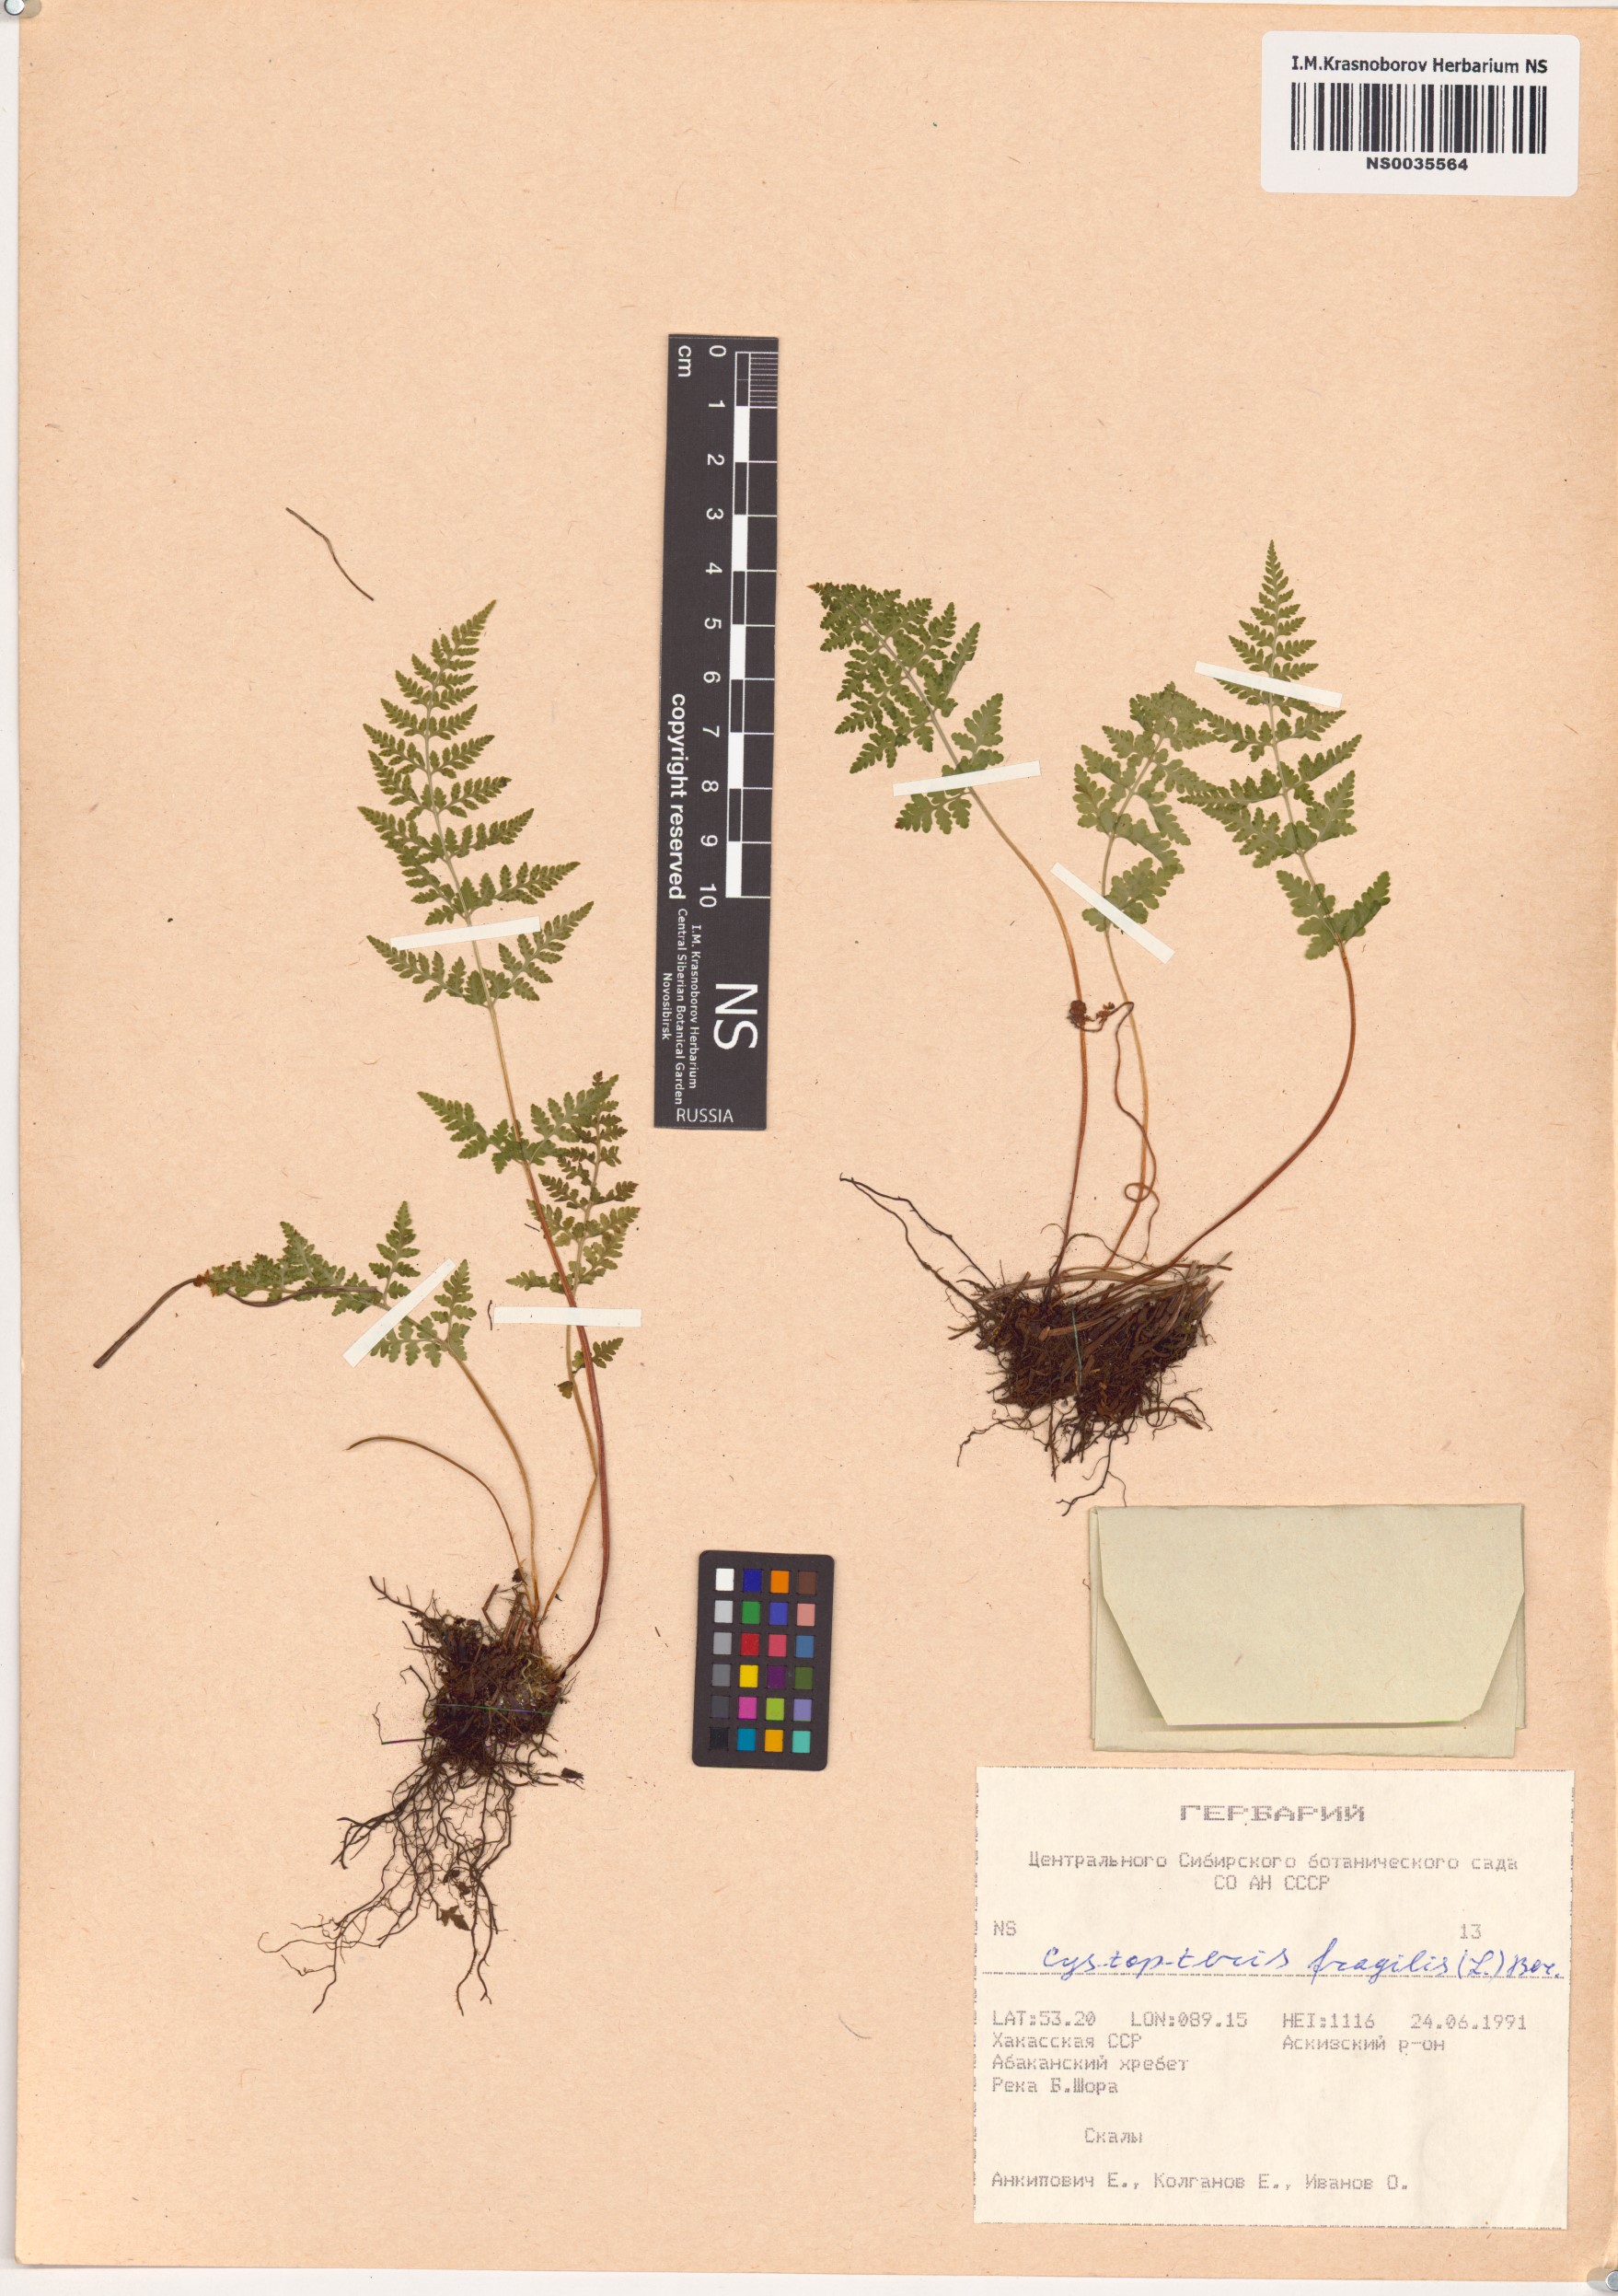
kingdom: Plantae
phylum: Tracheophyta
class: Polypodiopsida
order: Polypodiales
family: Cystopteridaceae
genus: Cystopteris
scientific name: Cystopteris fragilis
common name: Brittle bladder fern
